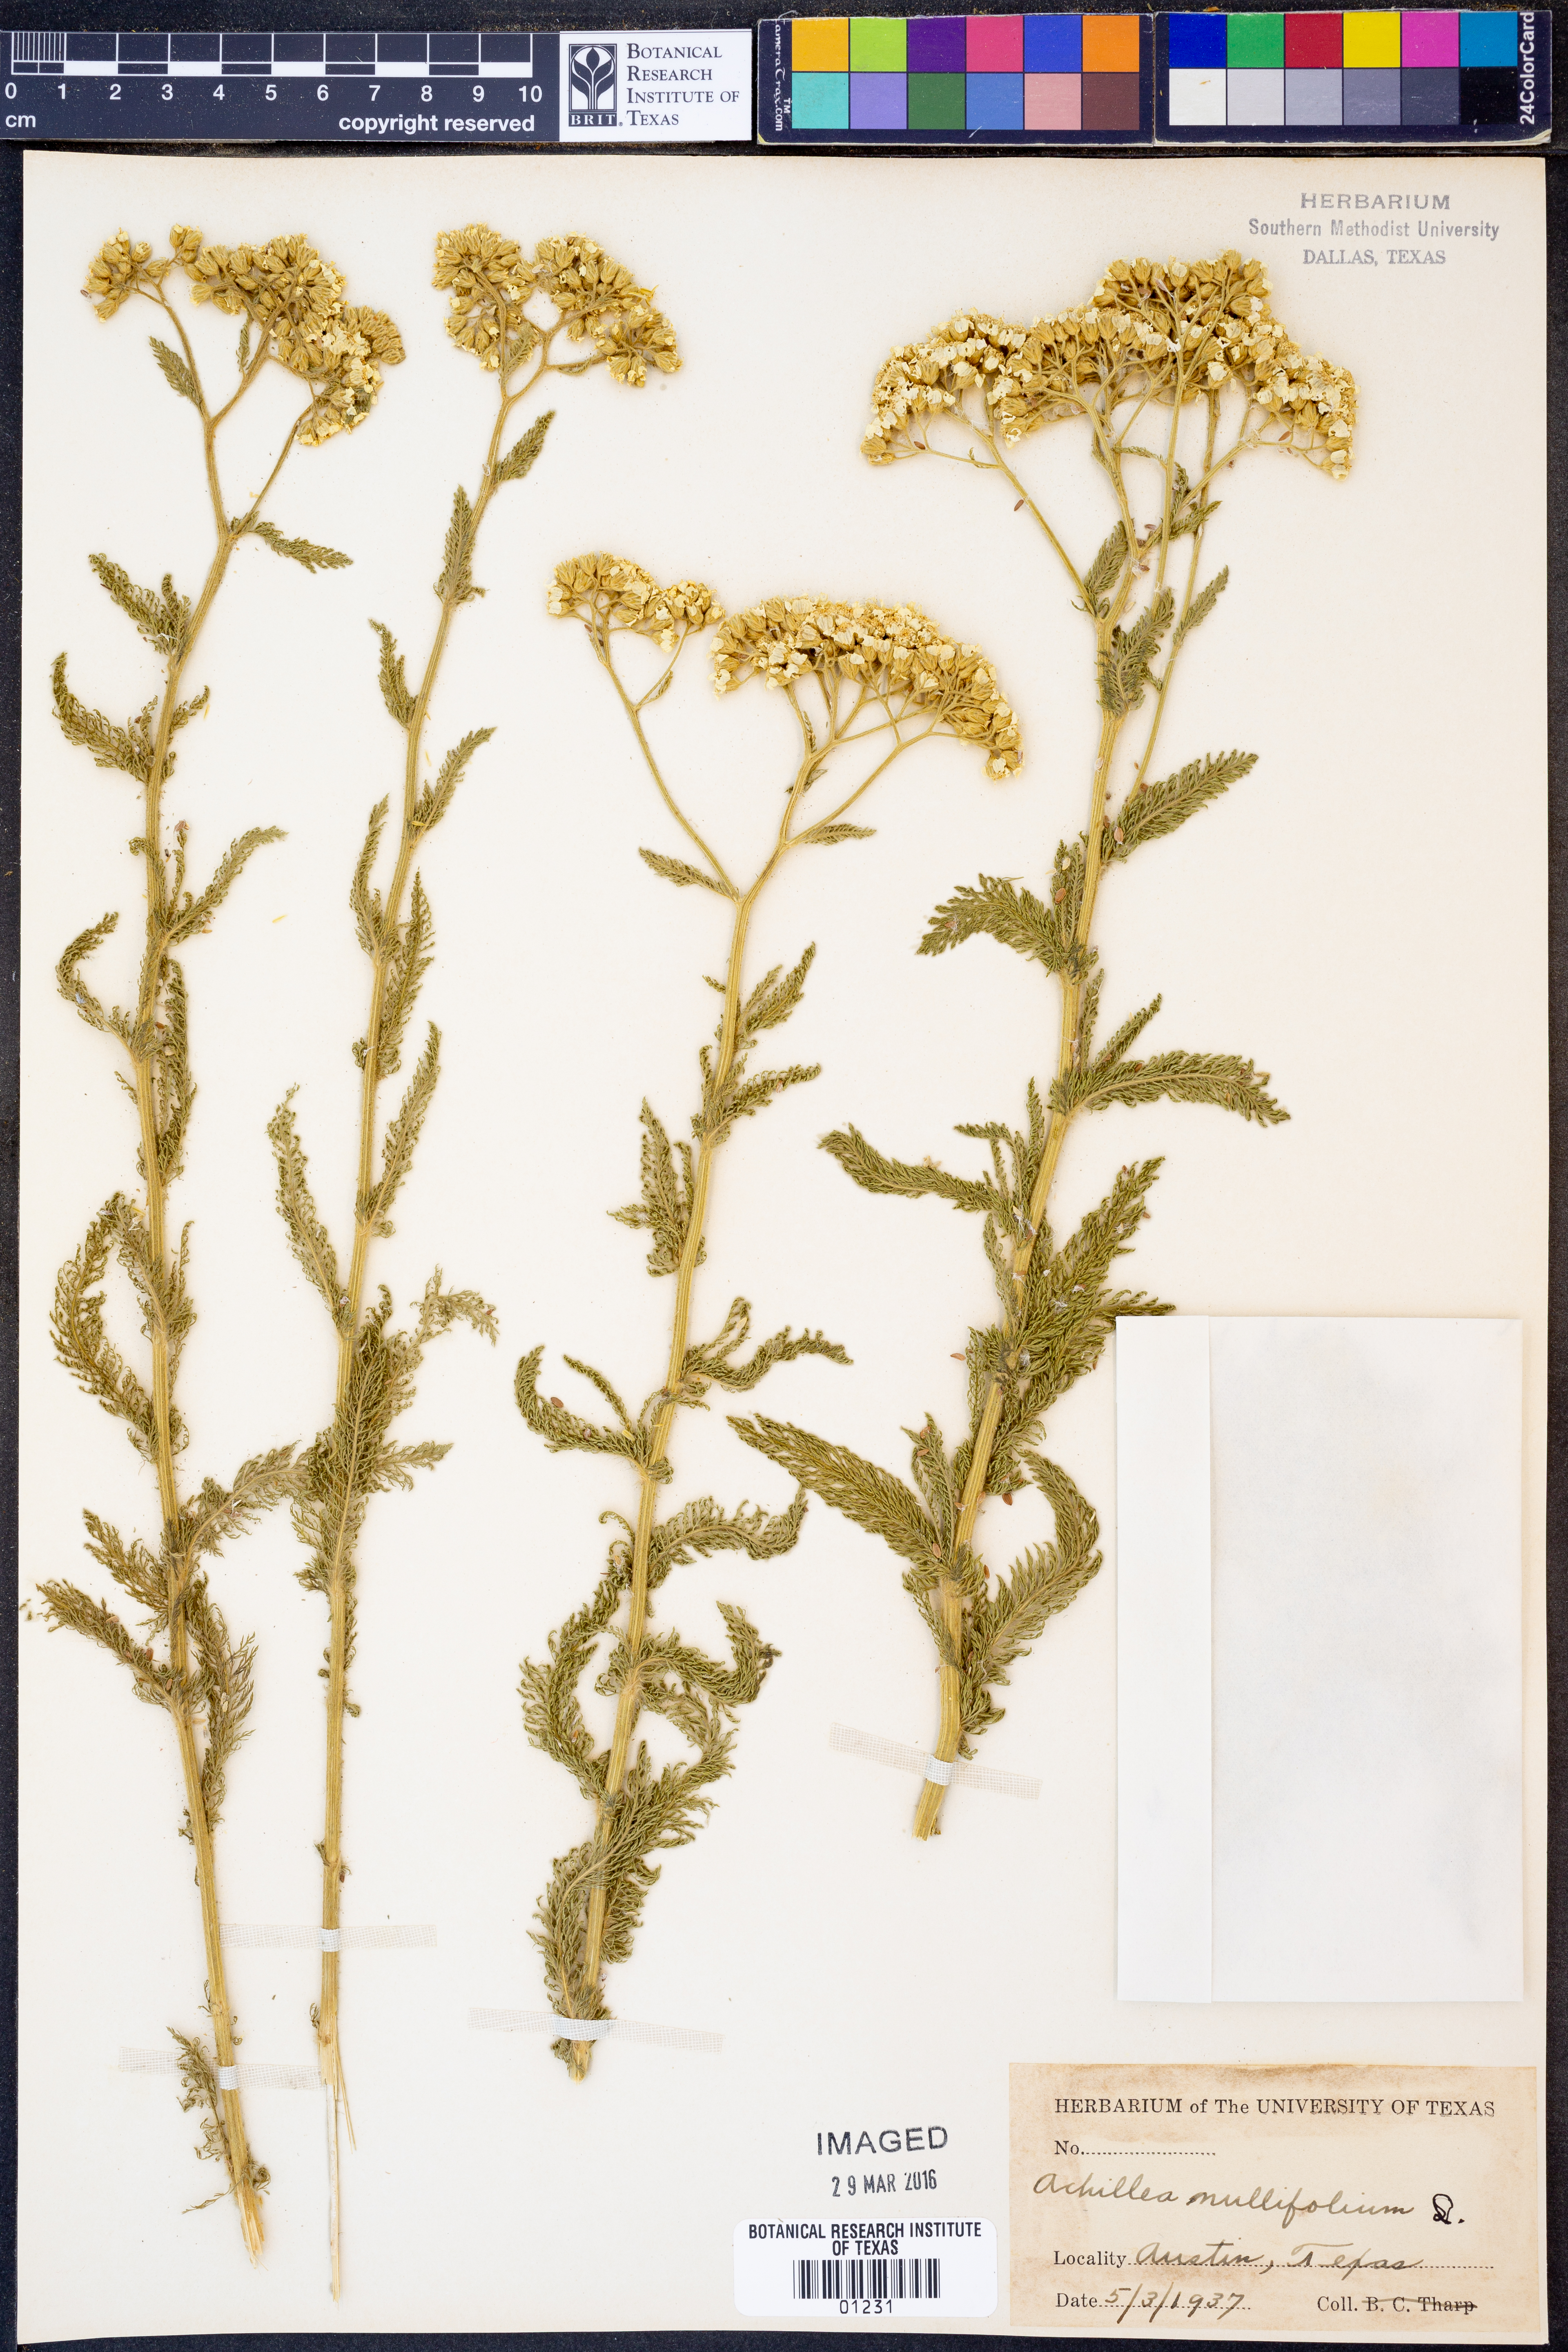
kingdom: Plantae
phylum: Tracheophyta
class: Magnoliopsida
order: Asterales
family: Asteraceae
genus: Achillea
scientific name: Achillea millefolium
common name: Yarrow
